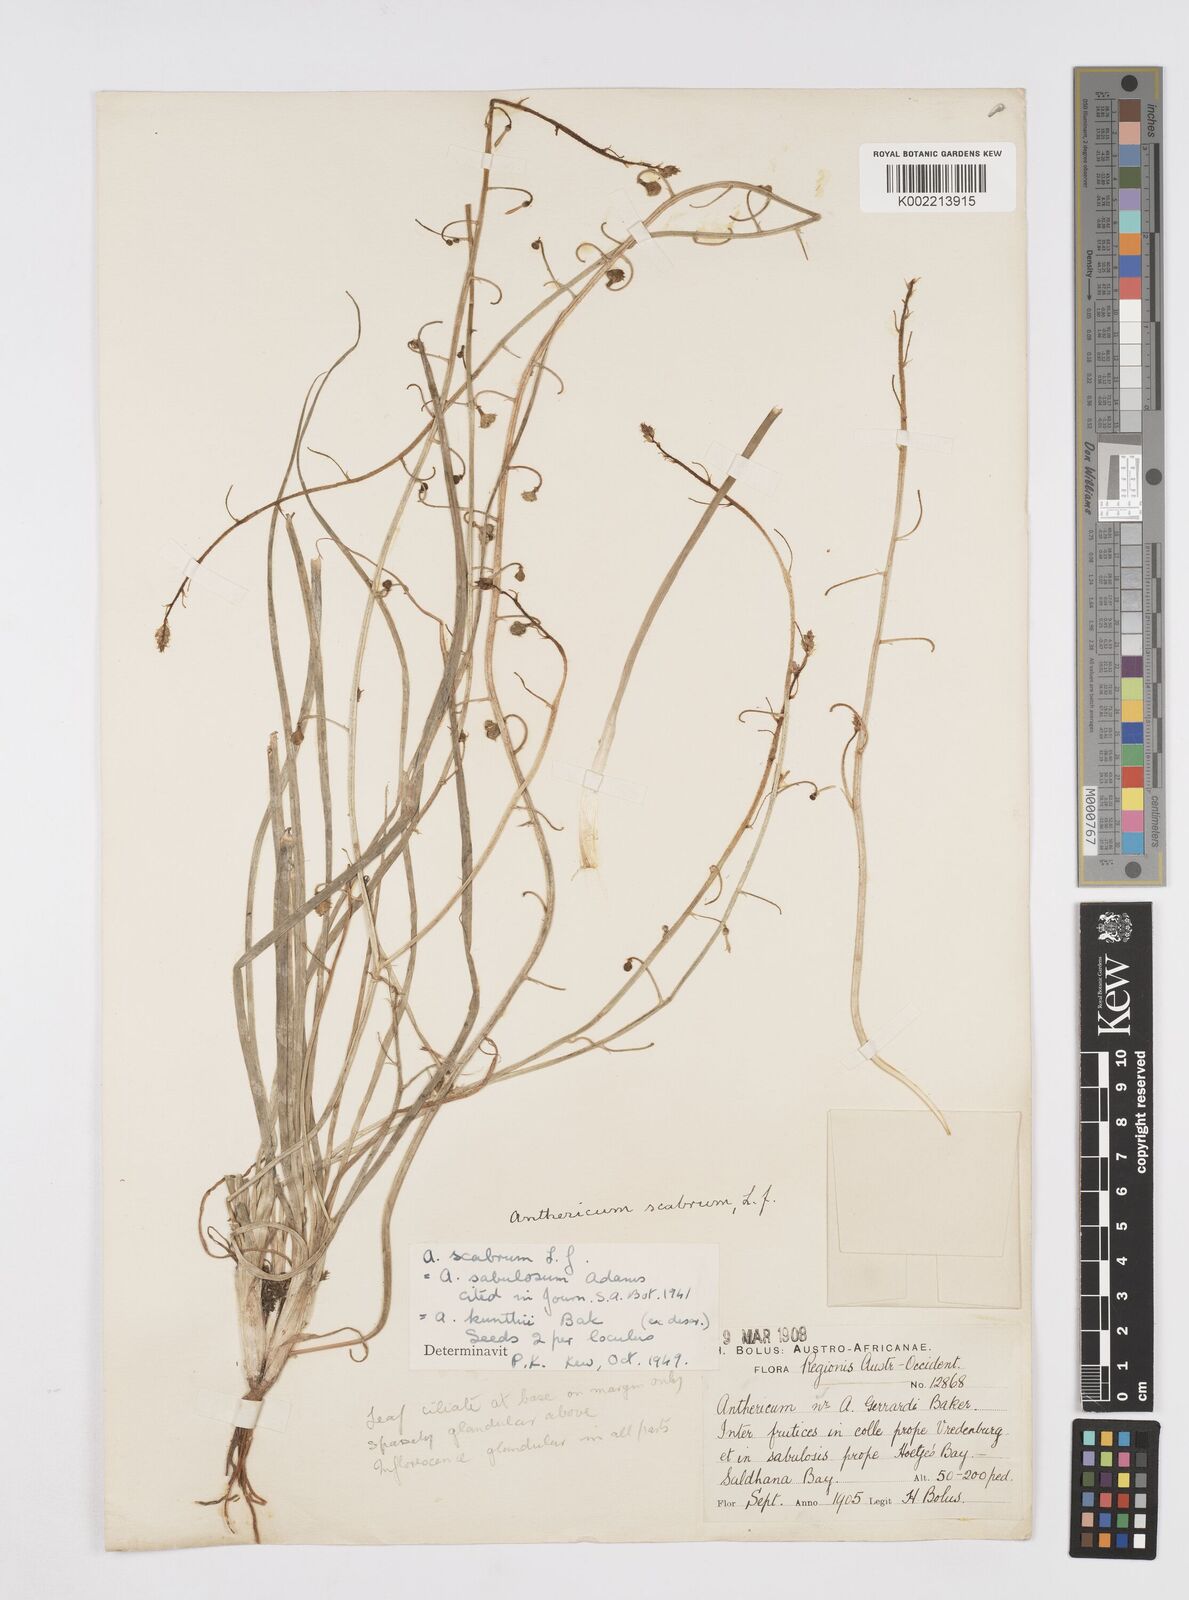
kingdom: Plantae
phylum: Tracheophyta
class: Liliopsida
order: Asparagales
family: Asphodelaceae
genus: Trachyandra
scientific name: Trachyandra scabra
